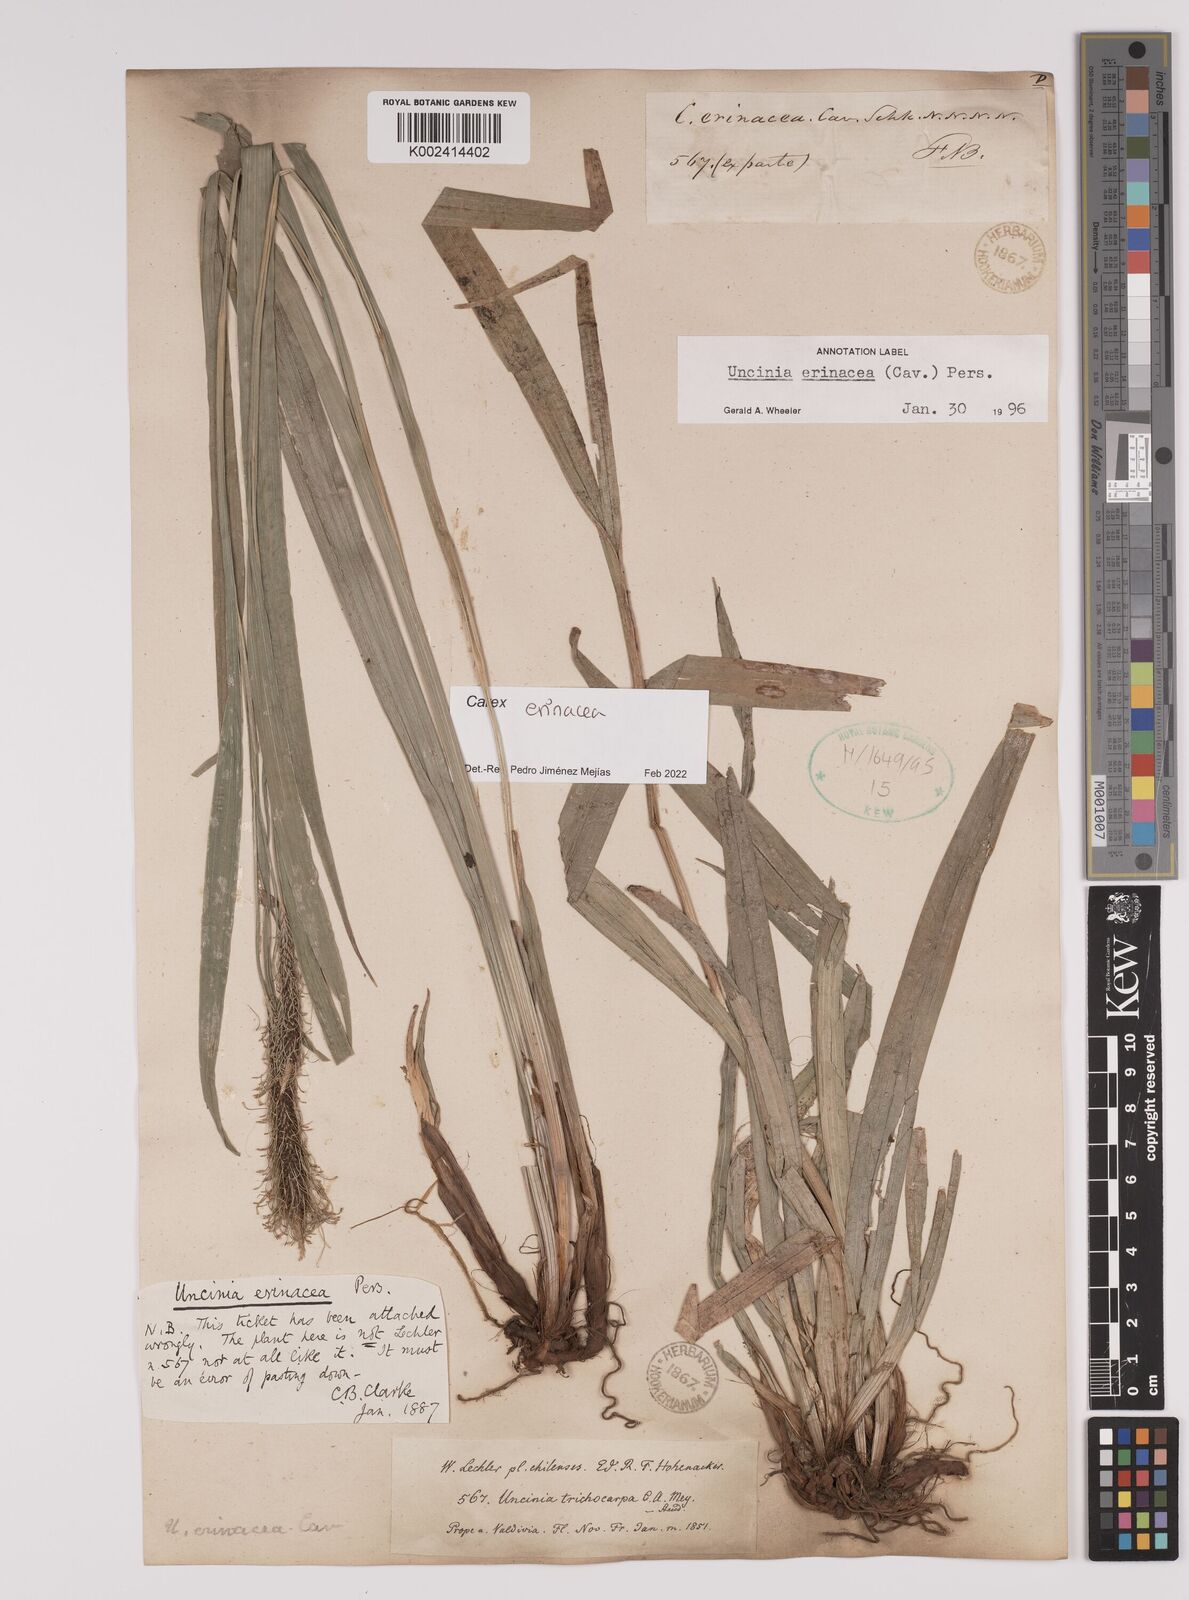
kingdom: Plantae
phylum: Tracheophyta
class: Liliopsida
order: Poales
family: Cyperaceae
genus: Carex
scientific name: Carex erinacea
